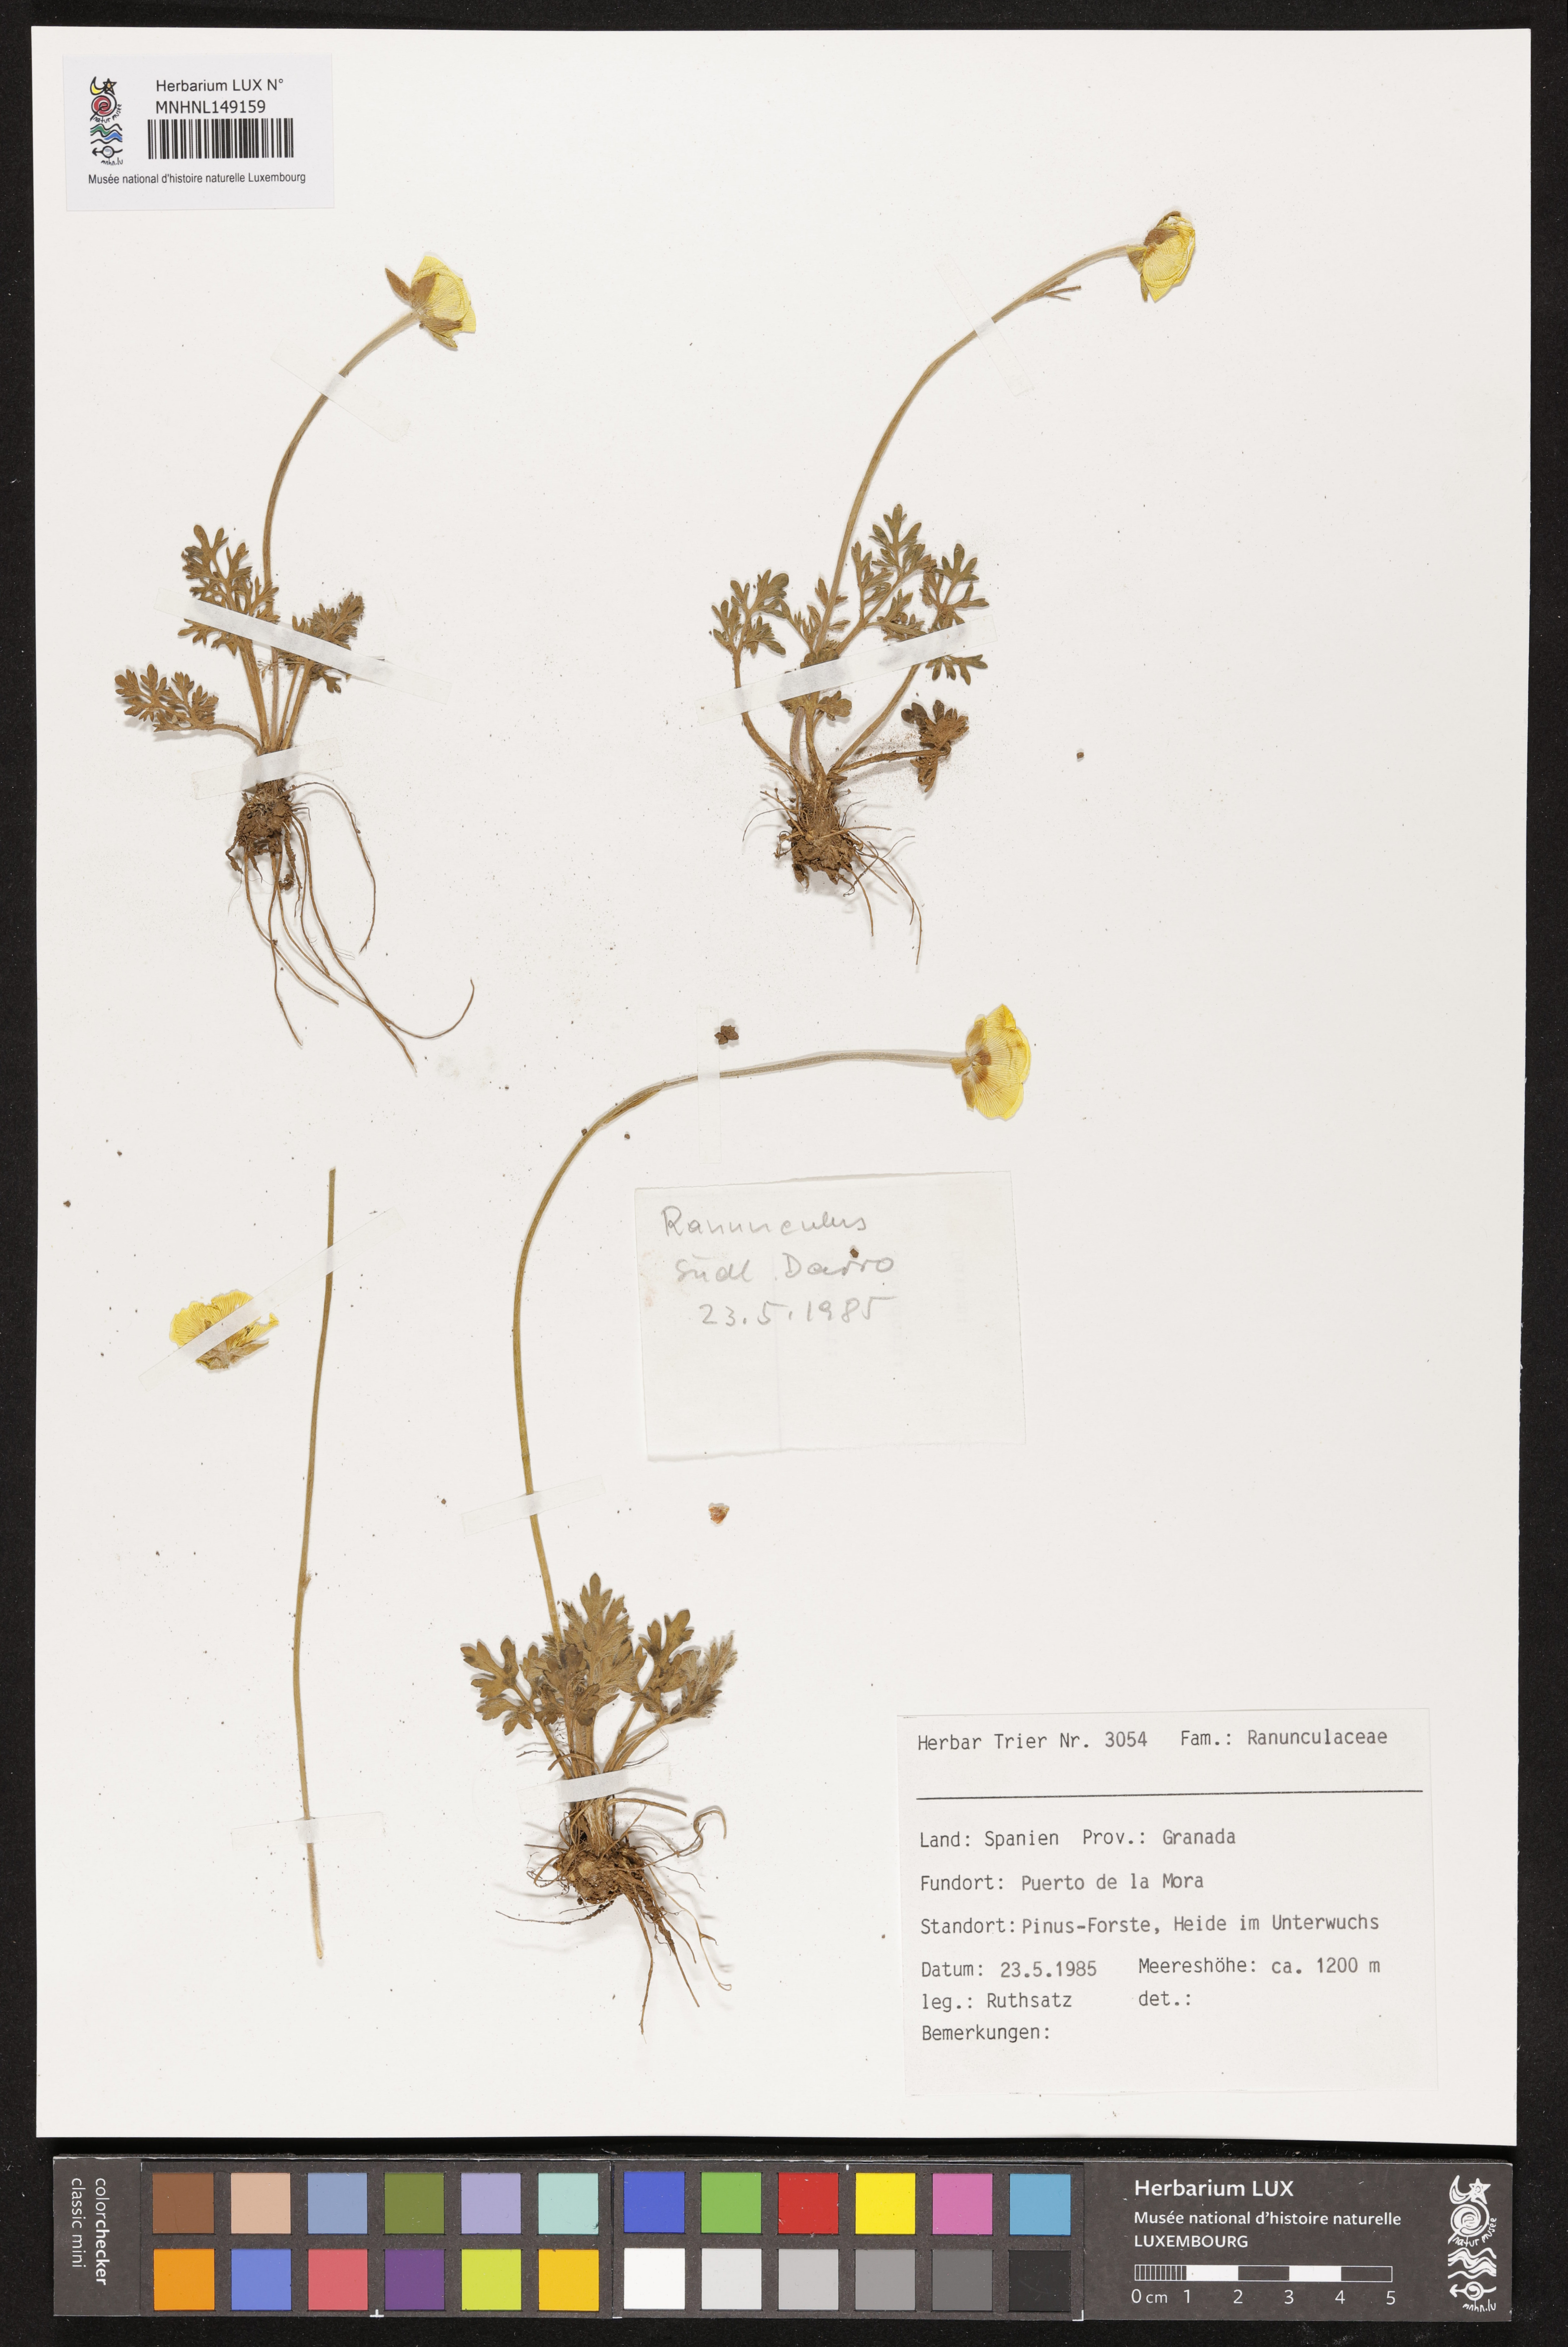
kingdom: Plantae
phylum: Tracheophyta
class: Magnoliopsida
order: Ranunculales
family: Ranunculaceae
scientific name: Ranunculaceae
